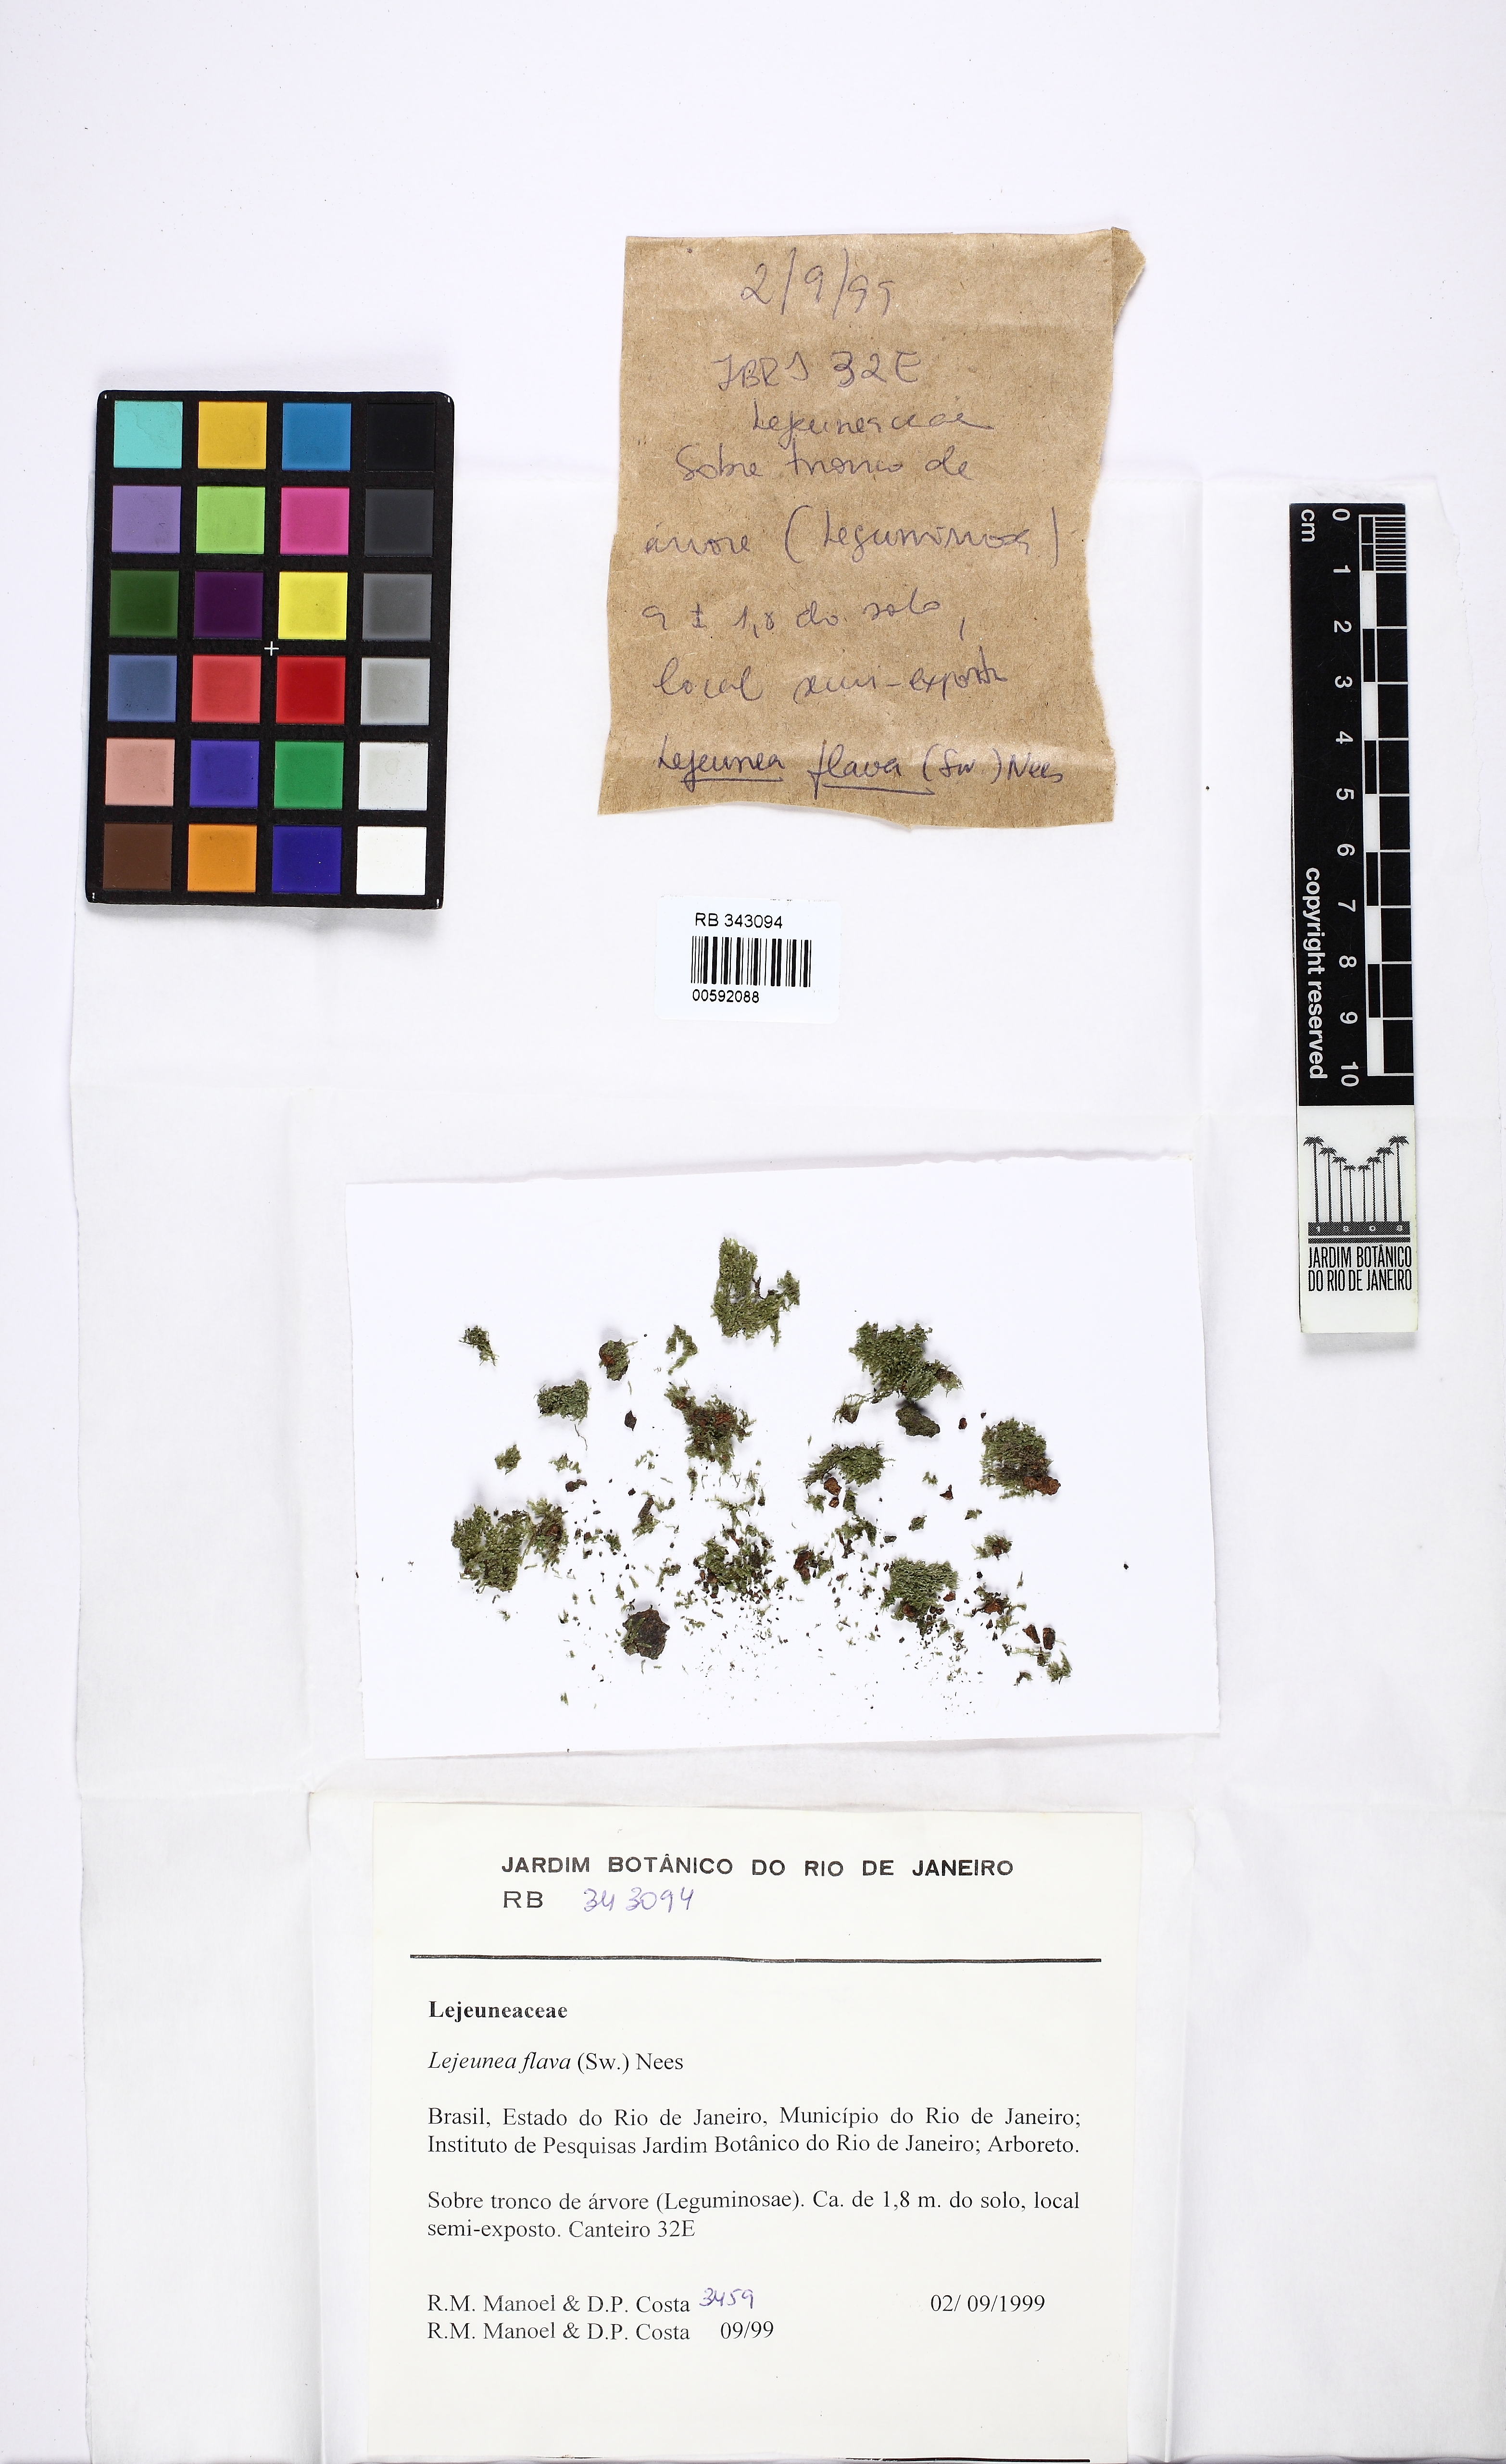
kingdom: Plantae
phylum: Marchantiophyta
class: Jungermanniopsida
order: Porellales
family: Lejeuneaceae
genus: Lejeunea
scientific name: Lejeunea flava
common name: Yellow pouncewort
